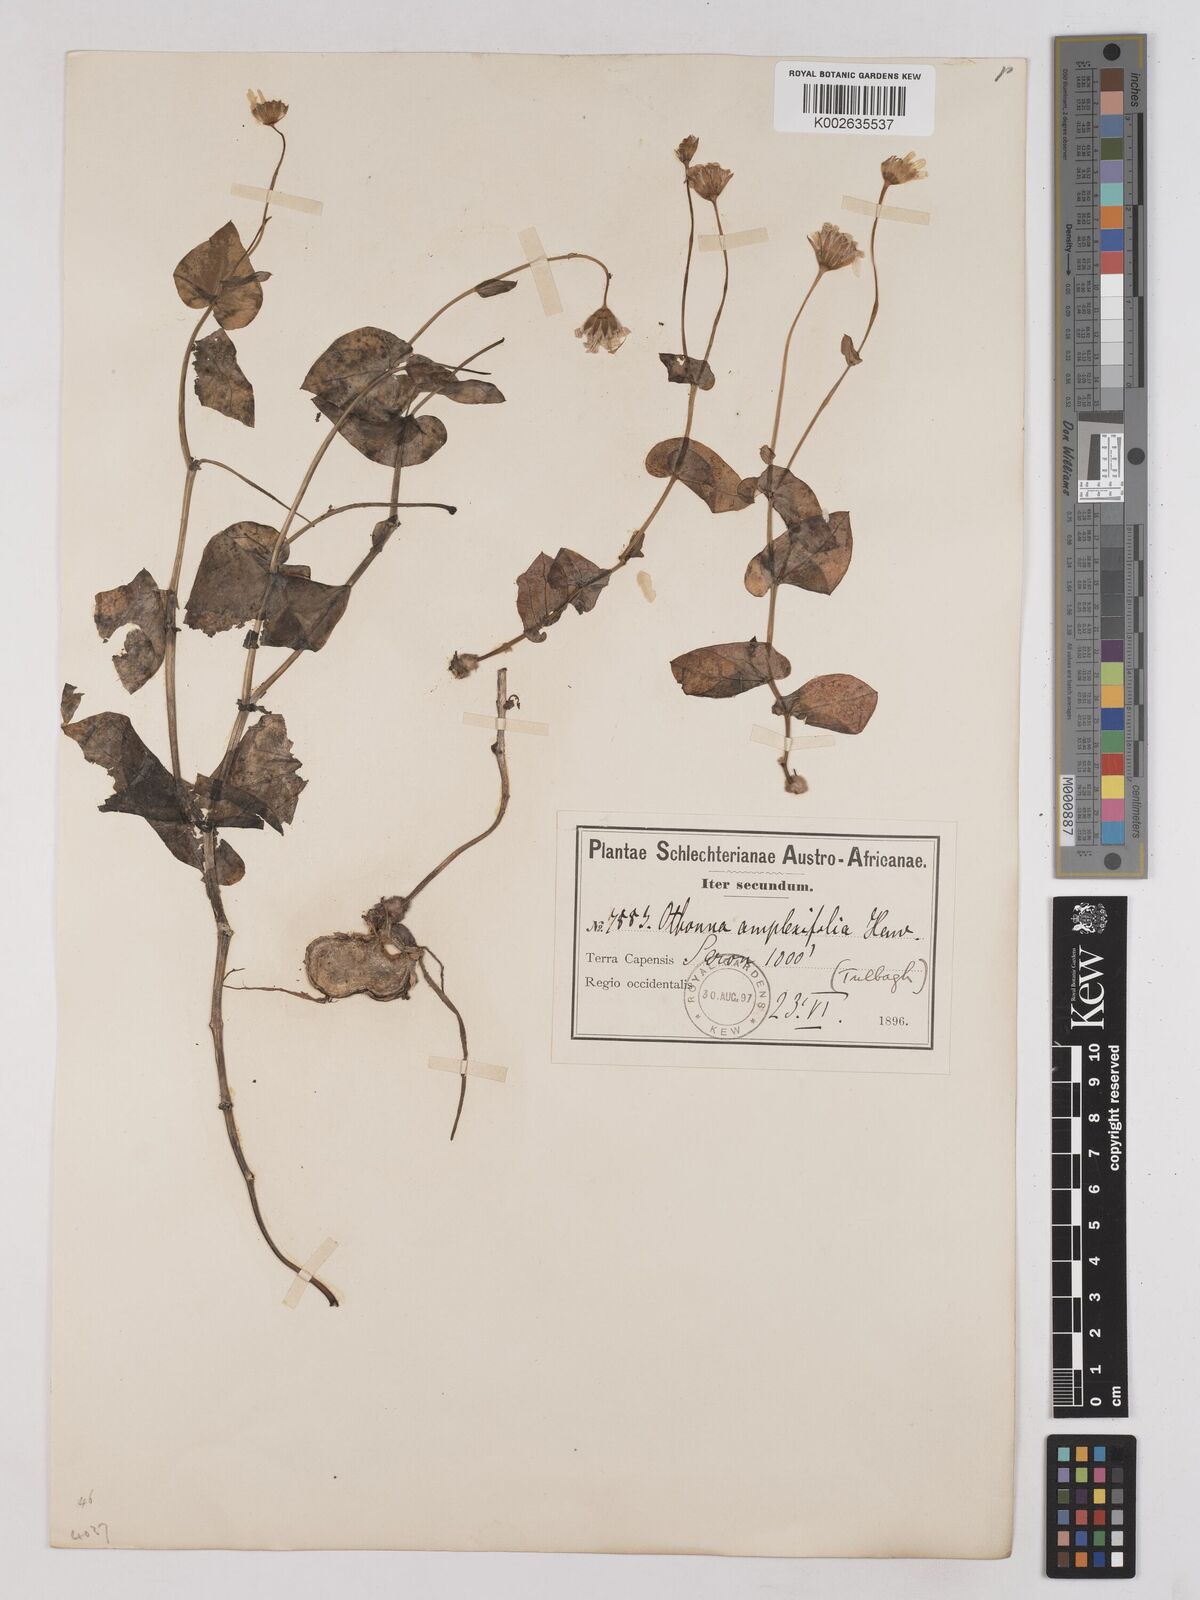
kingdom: Plantae
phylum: Tracheophyta
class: Magnoliopsida
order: Asterales
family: Asteraceae
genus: Othonna
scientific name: Othonna amplexifolia
